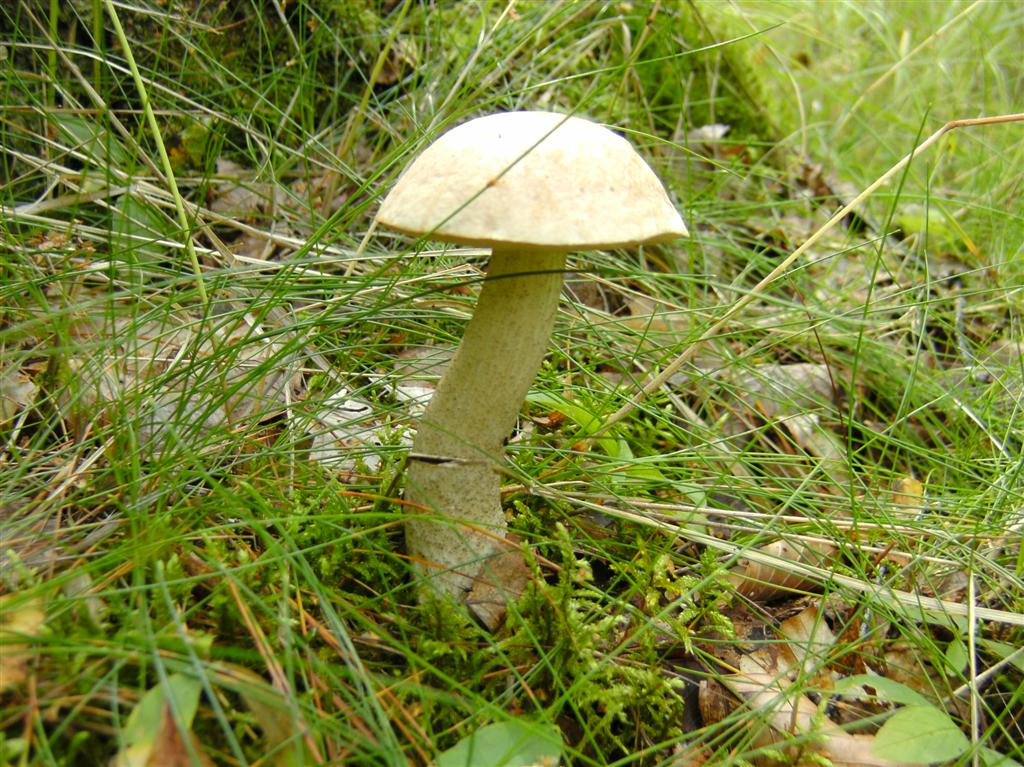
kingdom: Fungi
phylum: Basidiomycota
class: Agaricomycetes
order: Boletales
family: Boletaceae
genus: Leccinum
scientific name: Leccinum scabrum
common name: hvid skælrørhat
